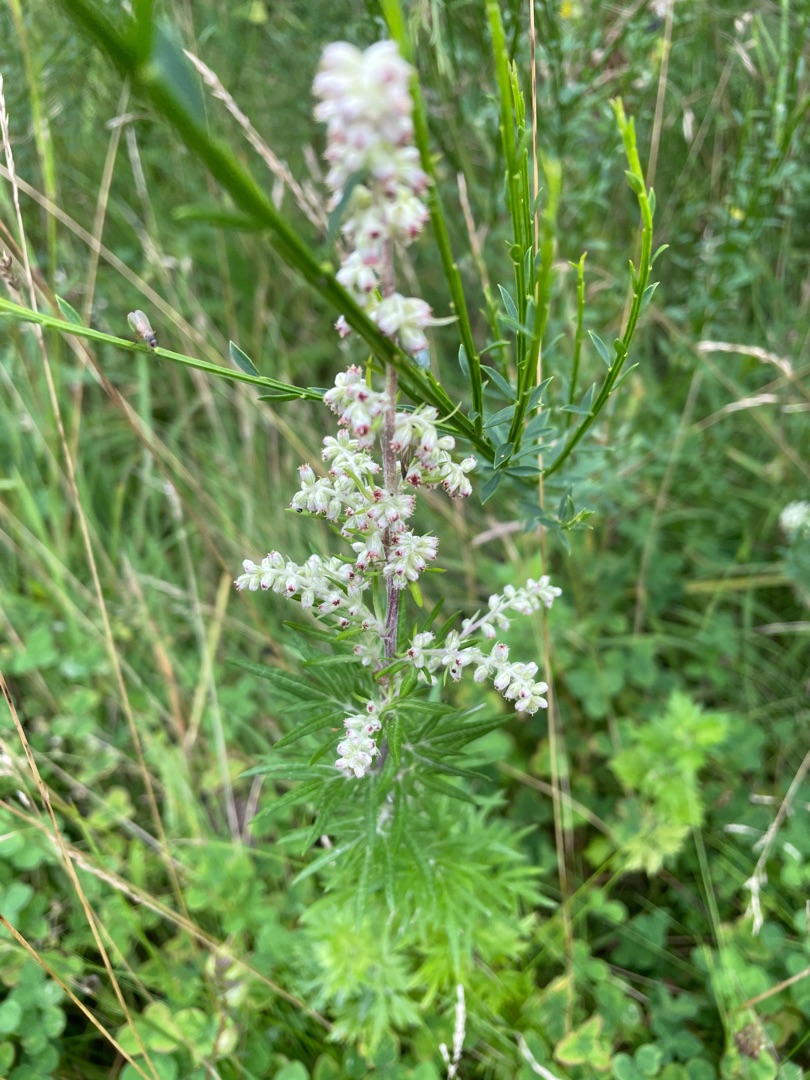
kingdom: Plantae
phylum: Tracheophyta
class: Magnoliopsida
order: Asterales
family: Asteraceae
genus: Artemisia
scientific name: Artemisia vulgaris
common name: Grå-bynke
